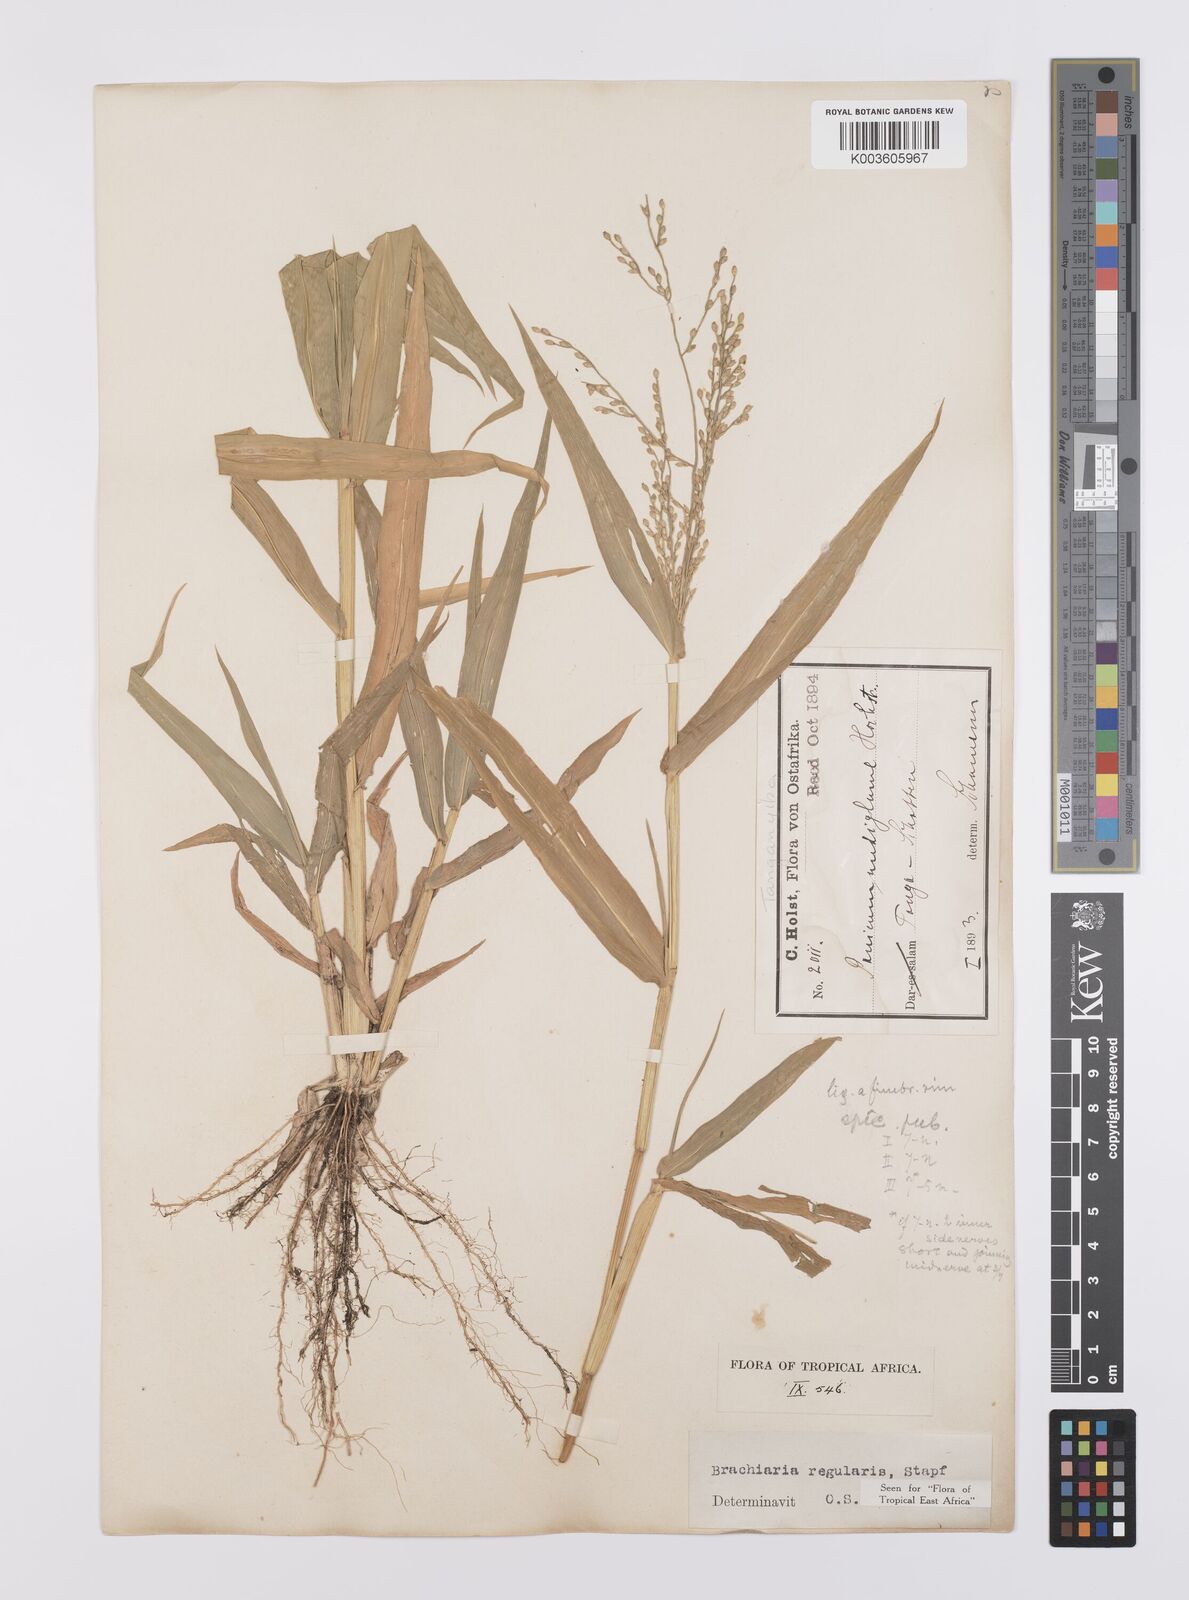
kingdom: Plantae
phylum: Tracheophyta
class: Liliopsida
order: Poales
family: Poaceae
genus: Urochloa
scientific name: Urochloa deflexa
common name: Guinea millet
